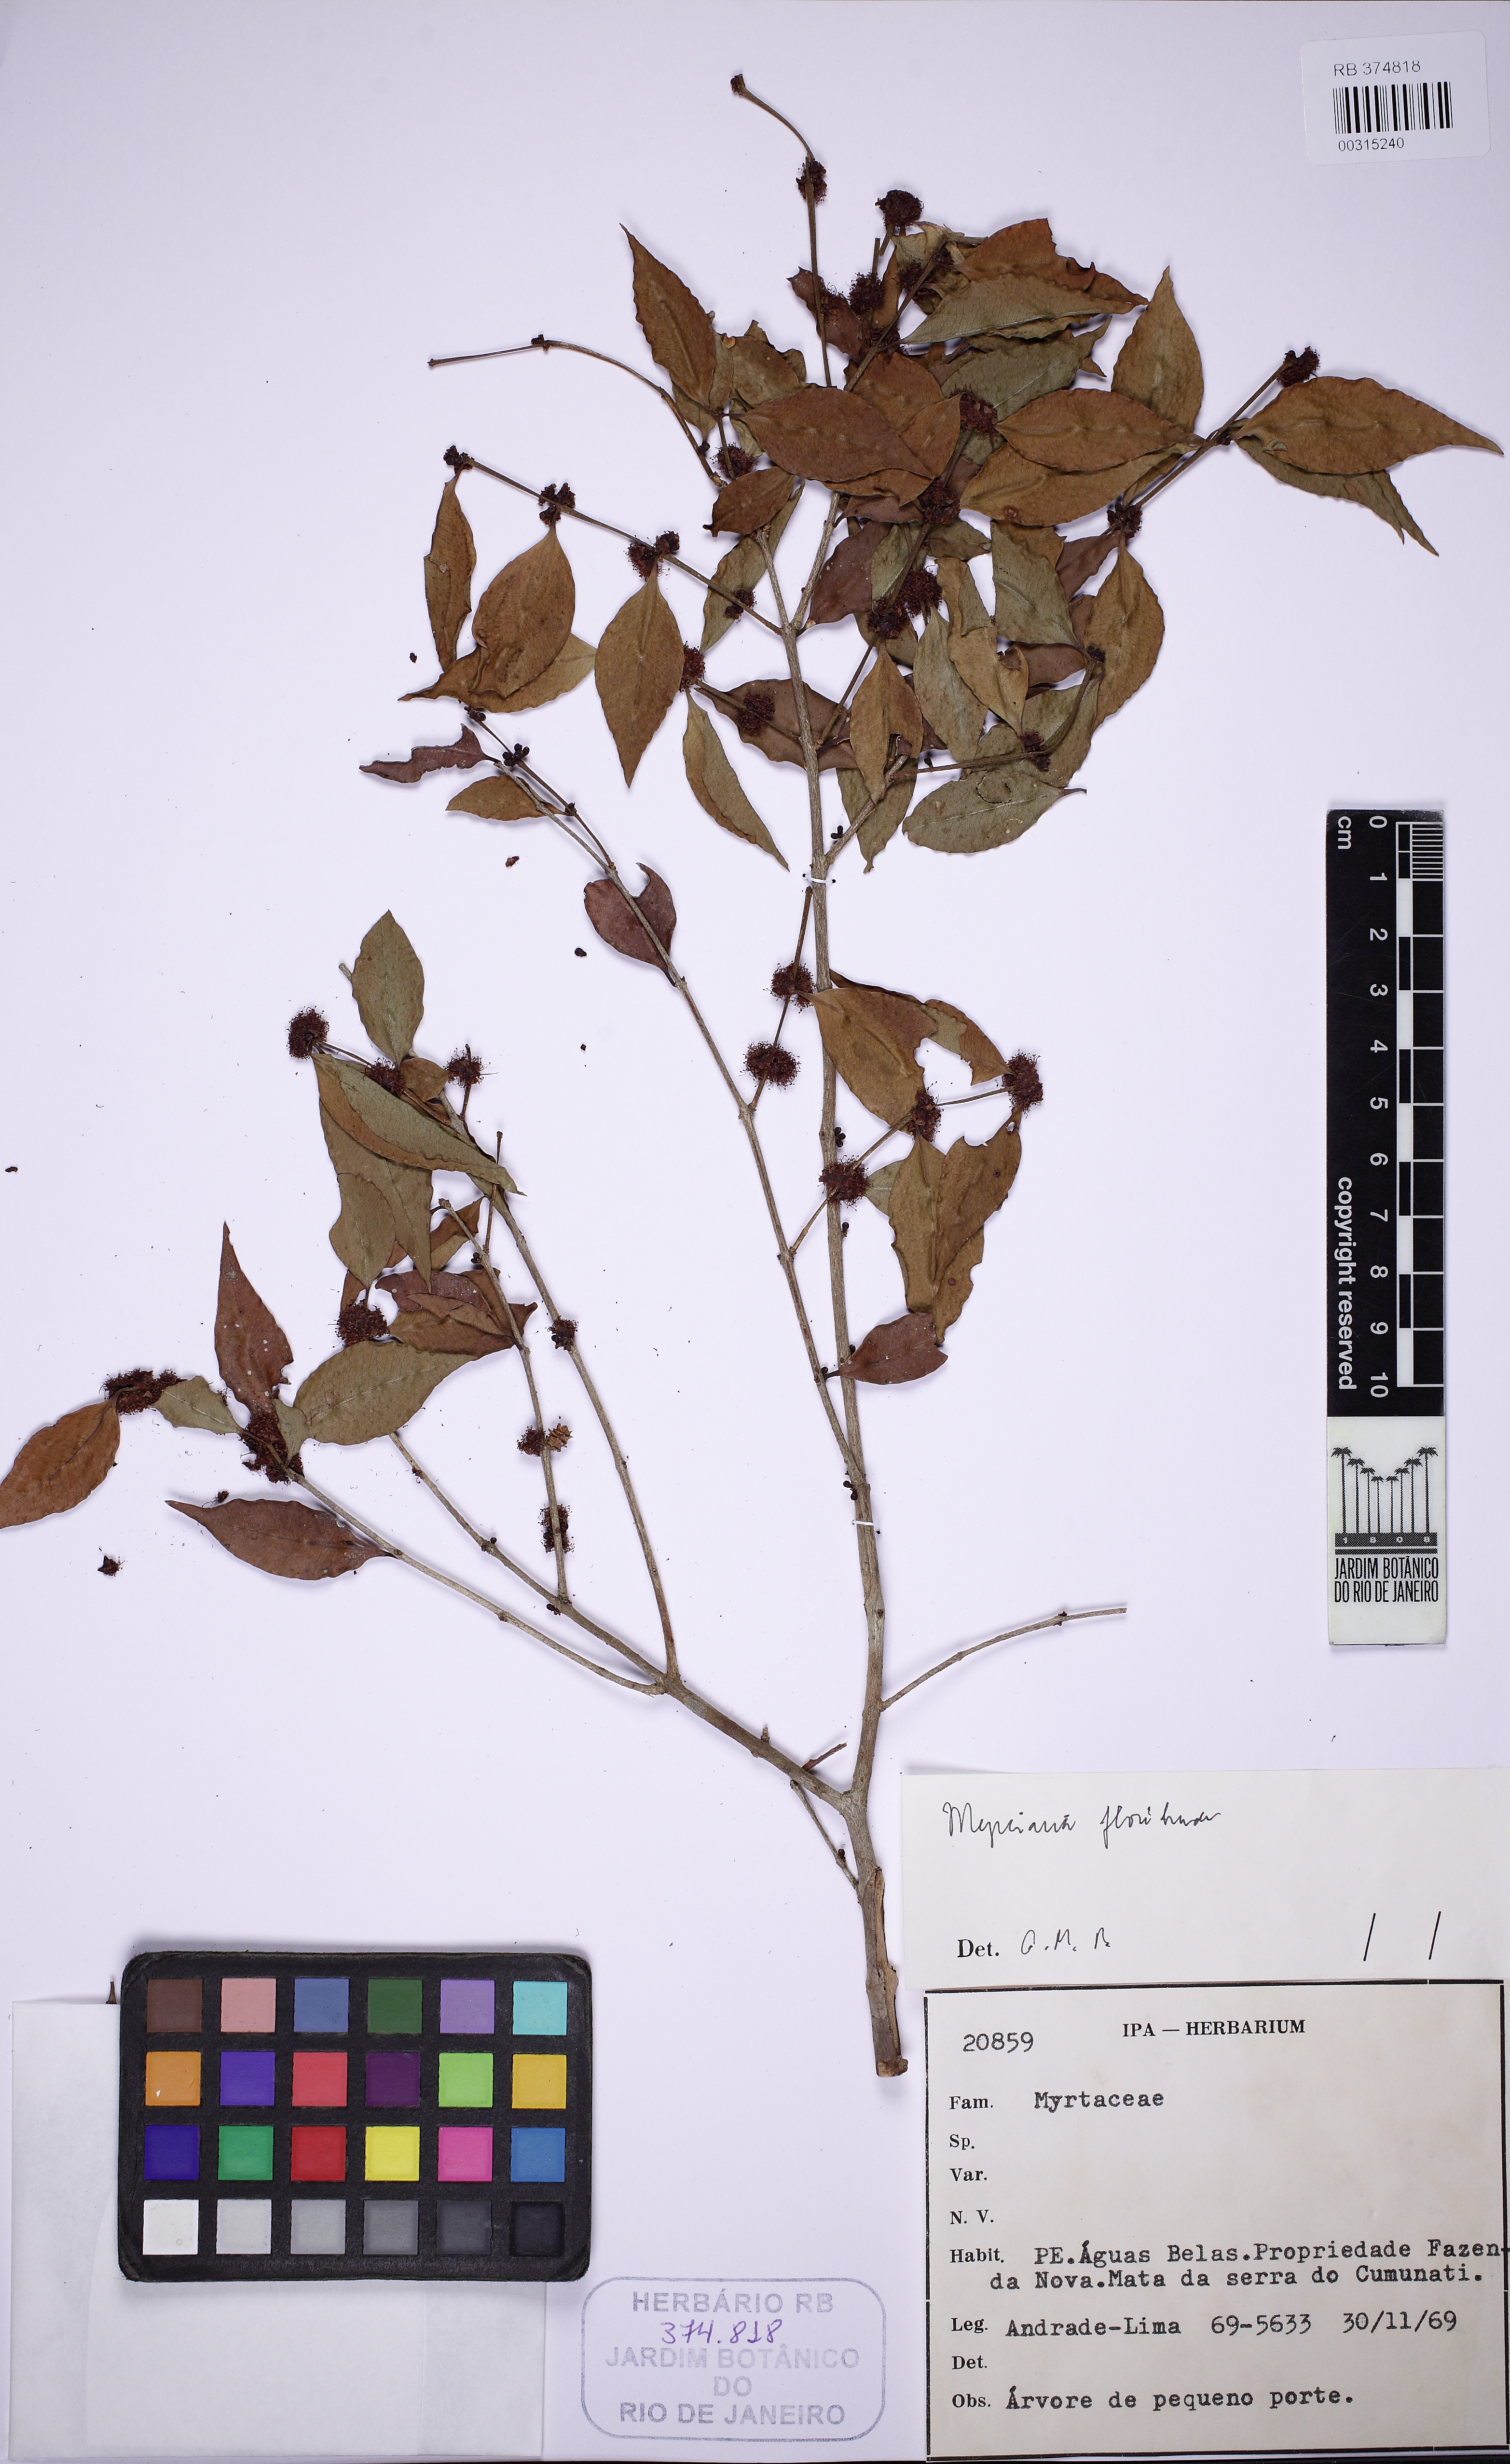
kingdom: Plantae
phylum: Tracheophyta
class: Magnoliopsida
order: Myrtales
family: Myrtaceae
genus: Myrciaria
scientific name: Myrciaria floribunda
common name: Guavaberry
